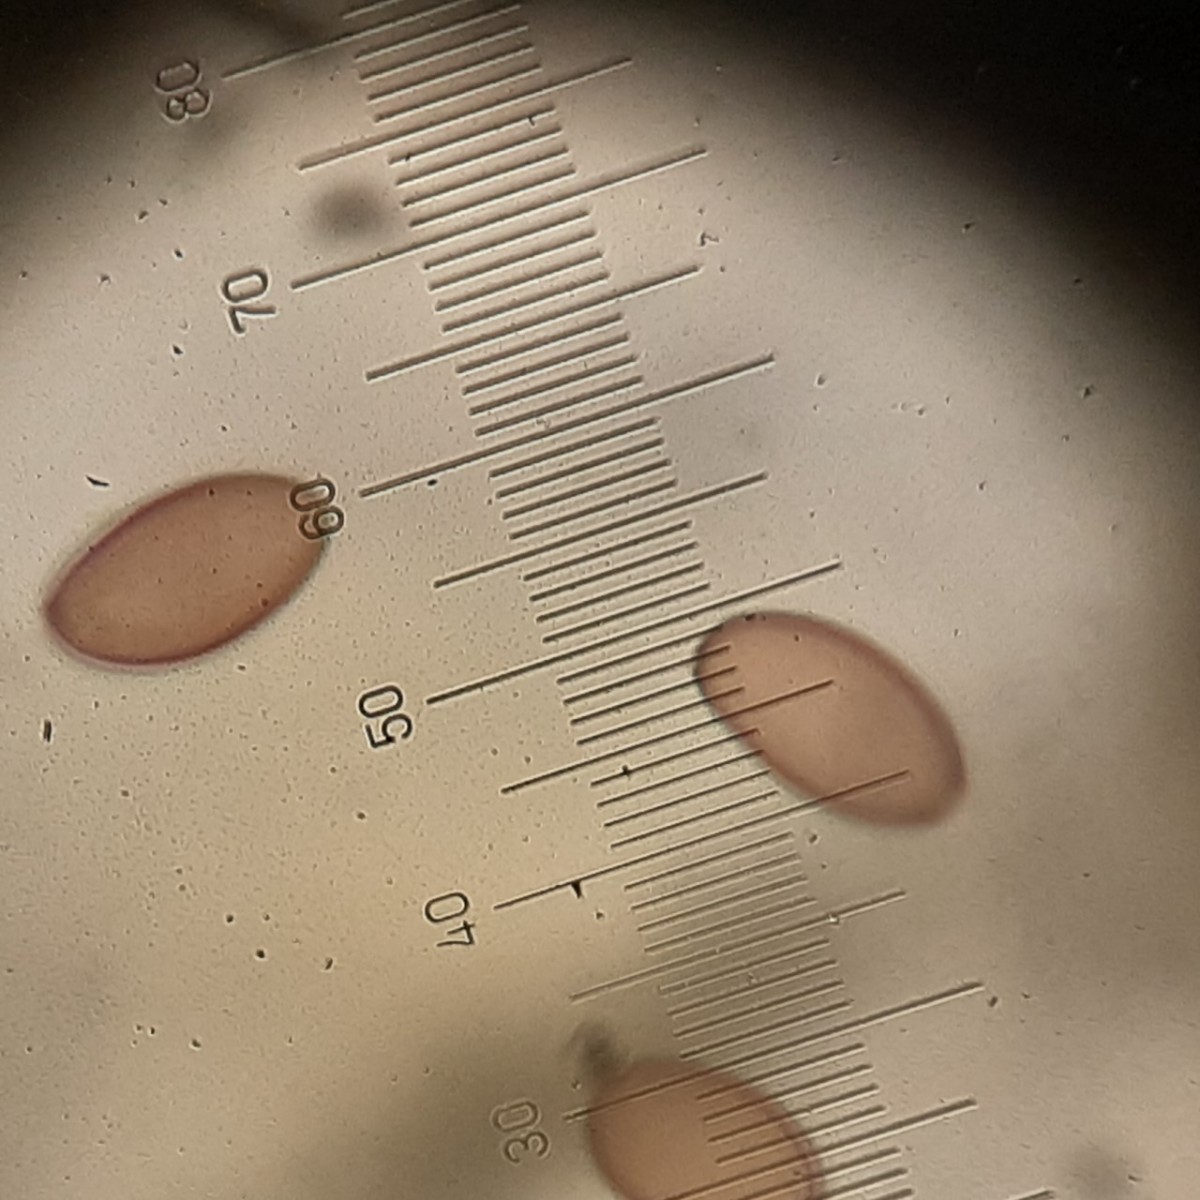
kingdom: Fungi
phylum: Basidiomycota
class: Agaricomycetes
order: Agaricales
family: Strophariaceae
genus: Deconica
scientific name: Deconica
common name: stråhat
